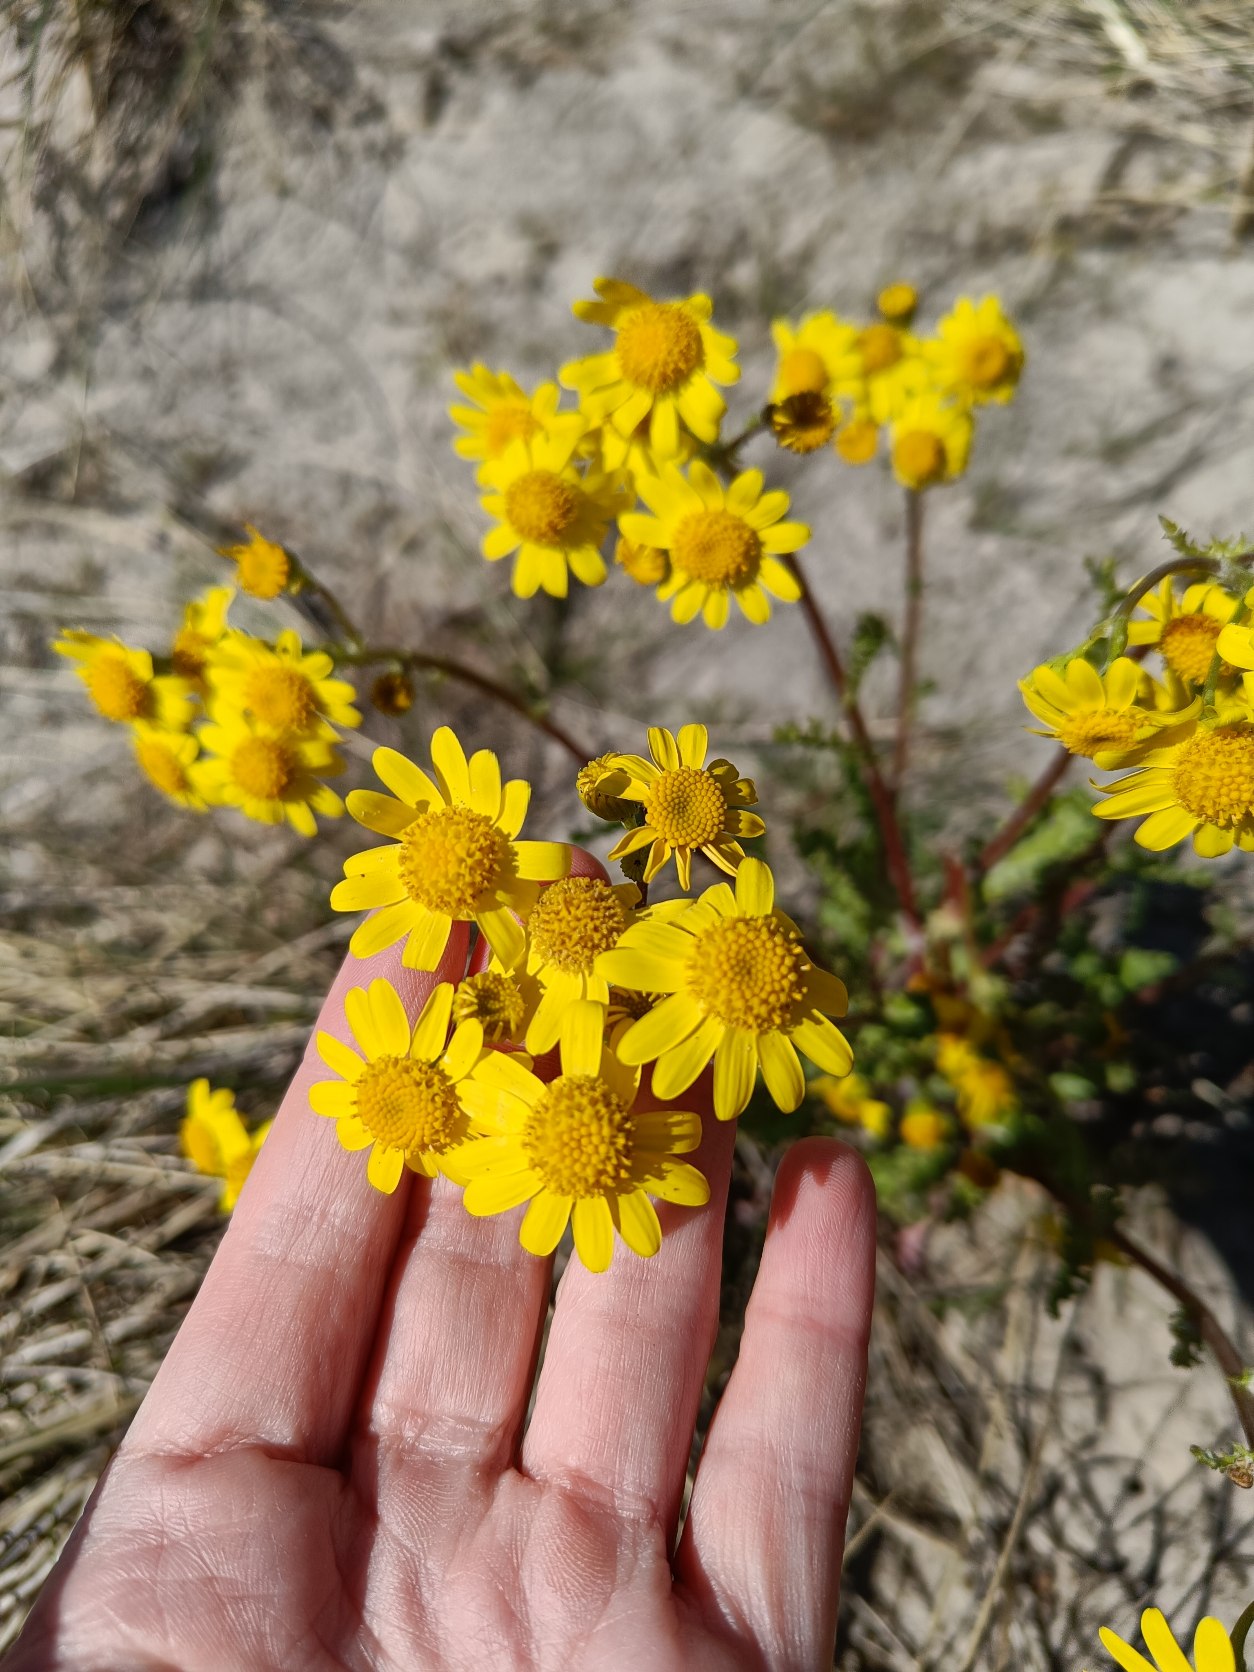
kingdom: Plantae
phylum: Tracheophyta
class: Magnoliopsida
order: Asterales
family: Asteraceae
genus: Senecio
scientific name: Senecio leucanthemifolius
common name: Vår-brandbæger
